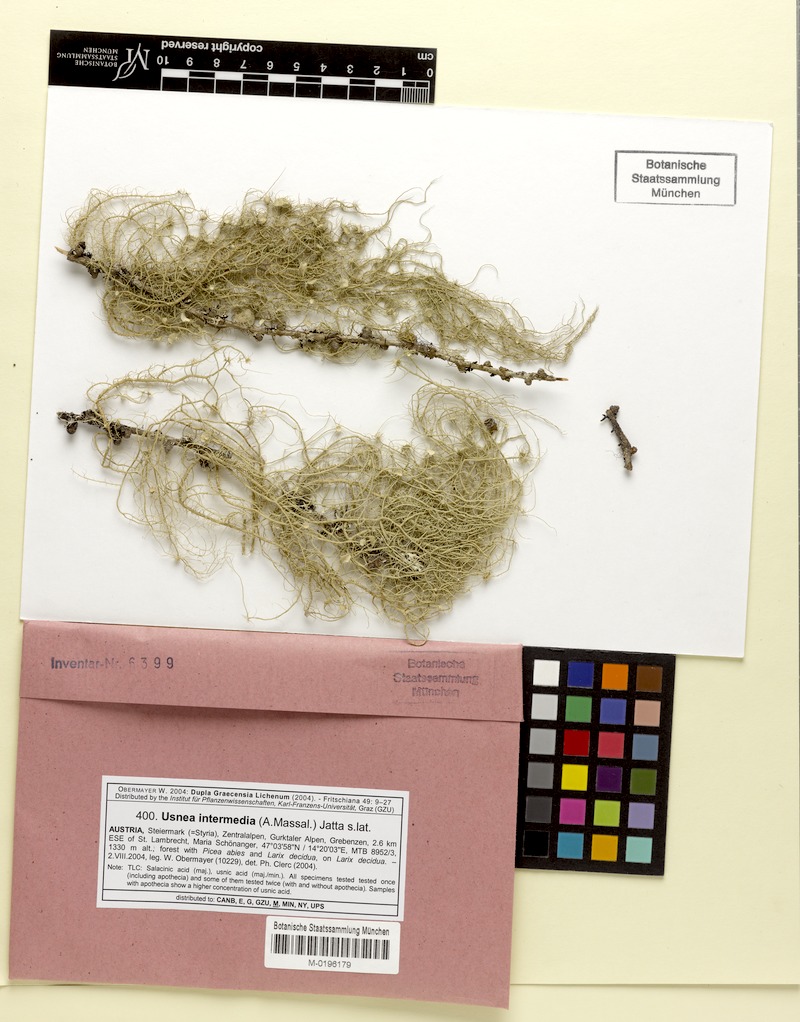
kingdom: Fungi
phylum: Ascomycota
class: Lecanoromycetes
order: Lecanorales
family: Parmeliaceae
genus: Usnea
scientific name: Usnea intermedia
